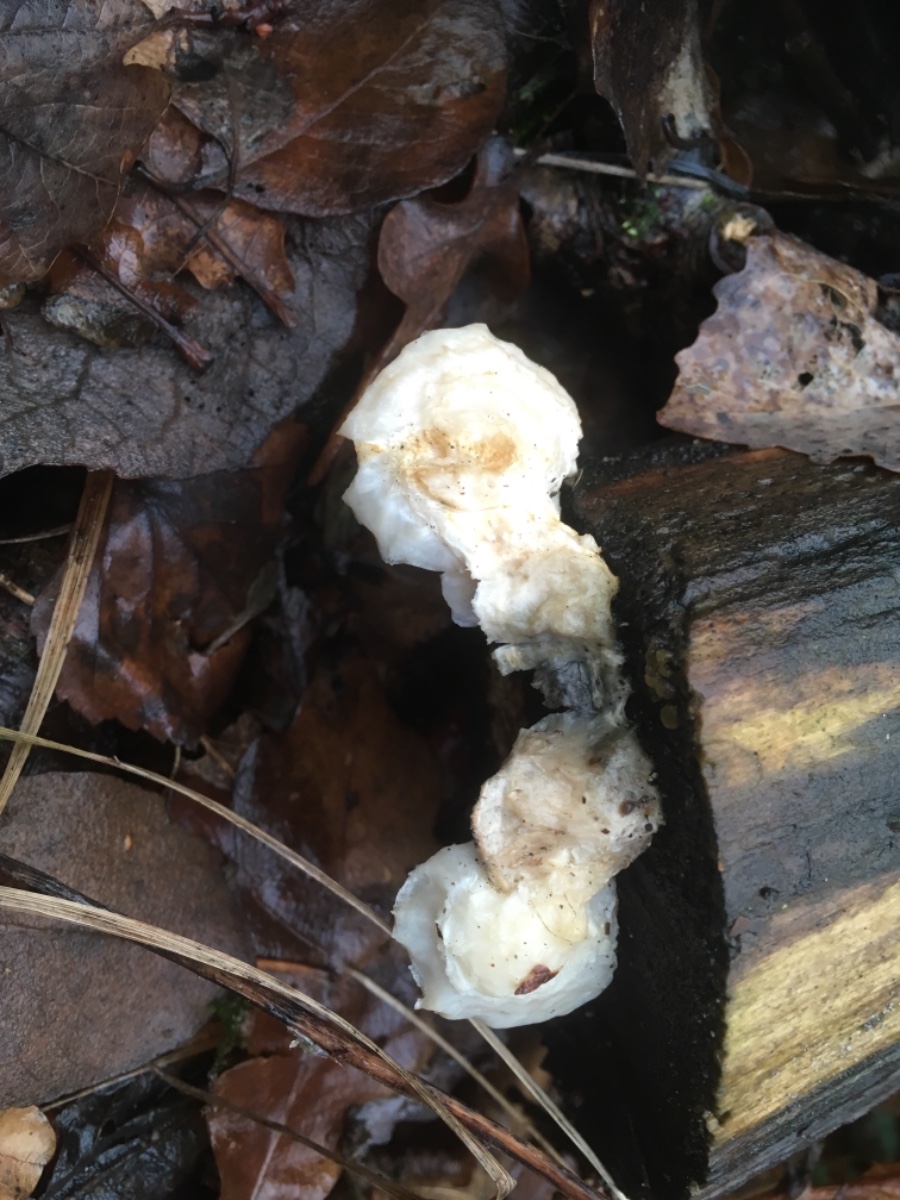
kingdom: Fungi
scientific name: Fungi
